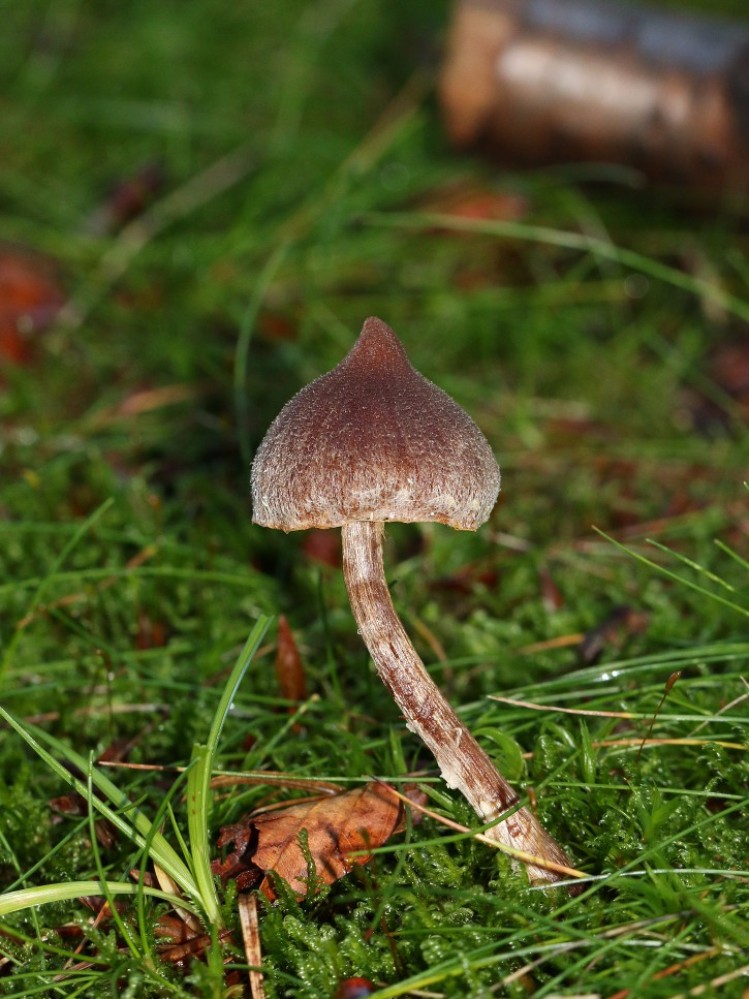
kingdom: Fungi
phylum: Basidiomycota
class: Agaricomycetes
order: Agaricales
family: Cortinariaceae
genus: Cortinarius
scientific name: Cortinarius
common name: pelargonie-slørhat
